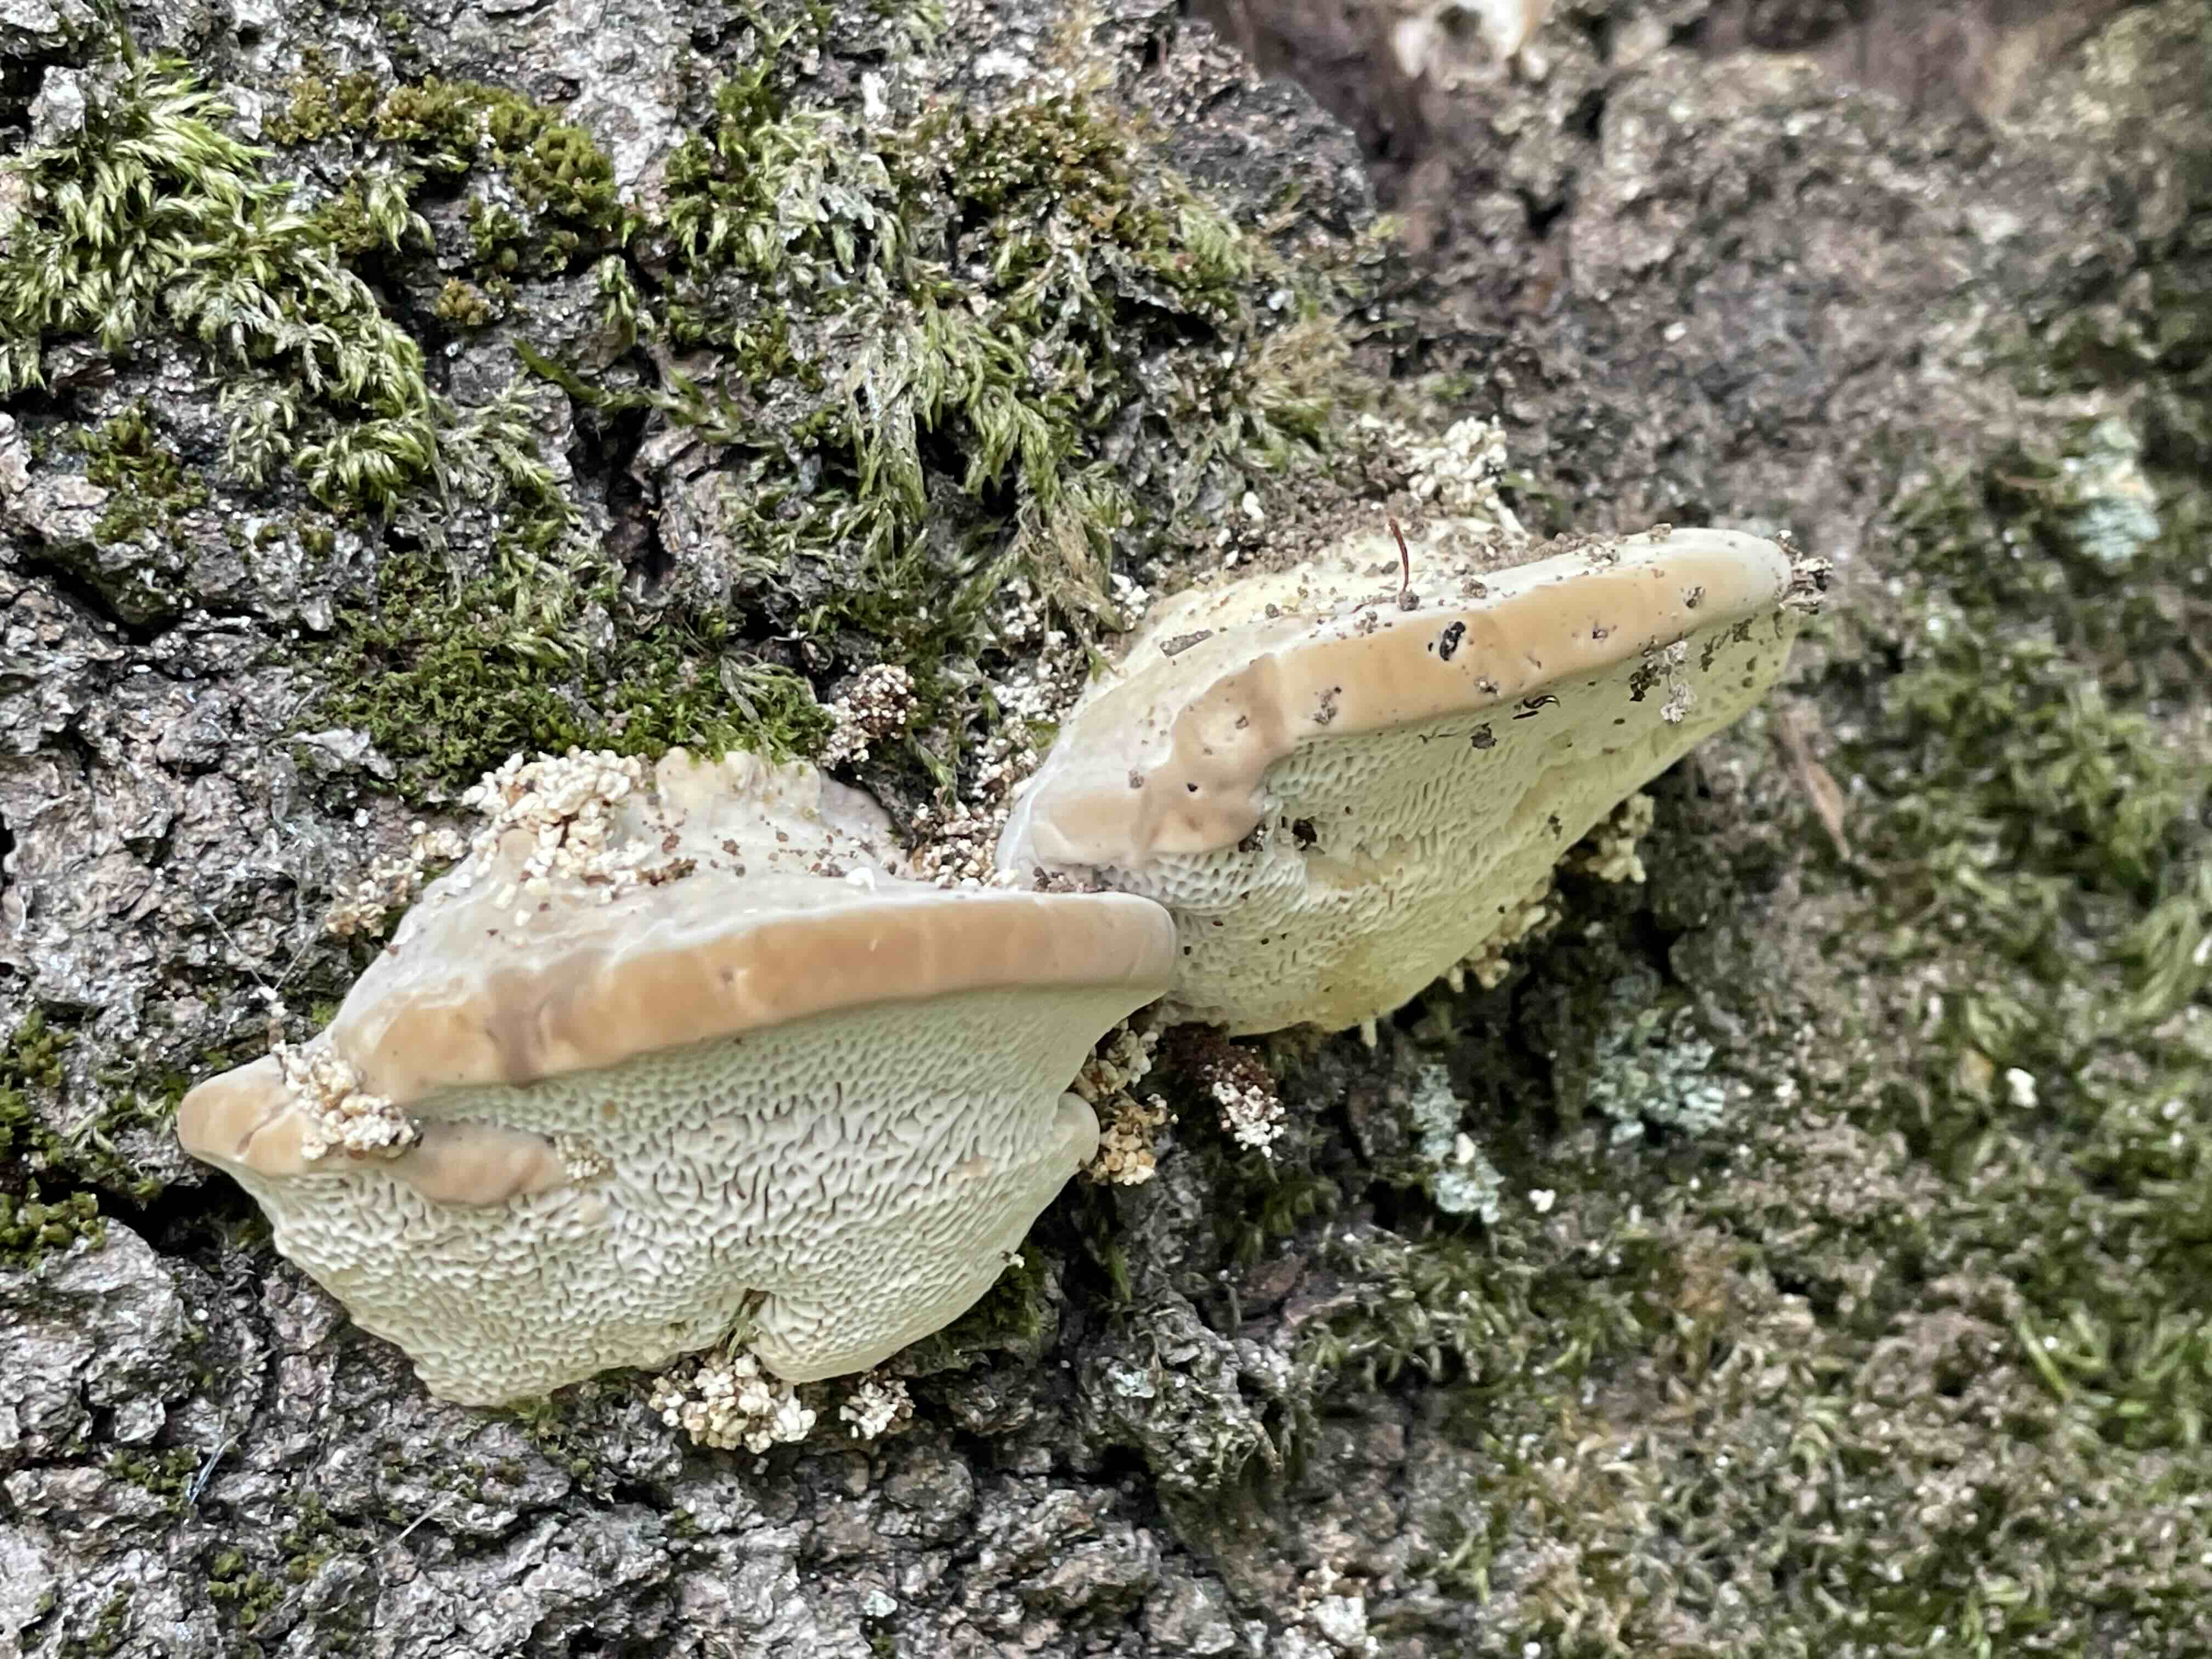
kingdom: Fungi
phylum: Basidiomycota
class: Agaricomycetes
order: Polyporales
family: Polyporaceae
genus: Trametes
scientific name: Trametes gibbosa
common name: puklet læderporesvamp
